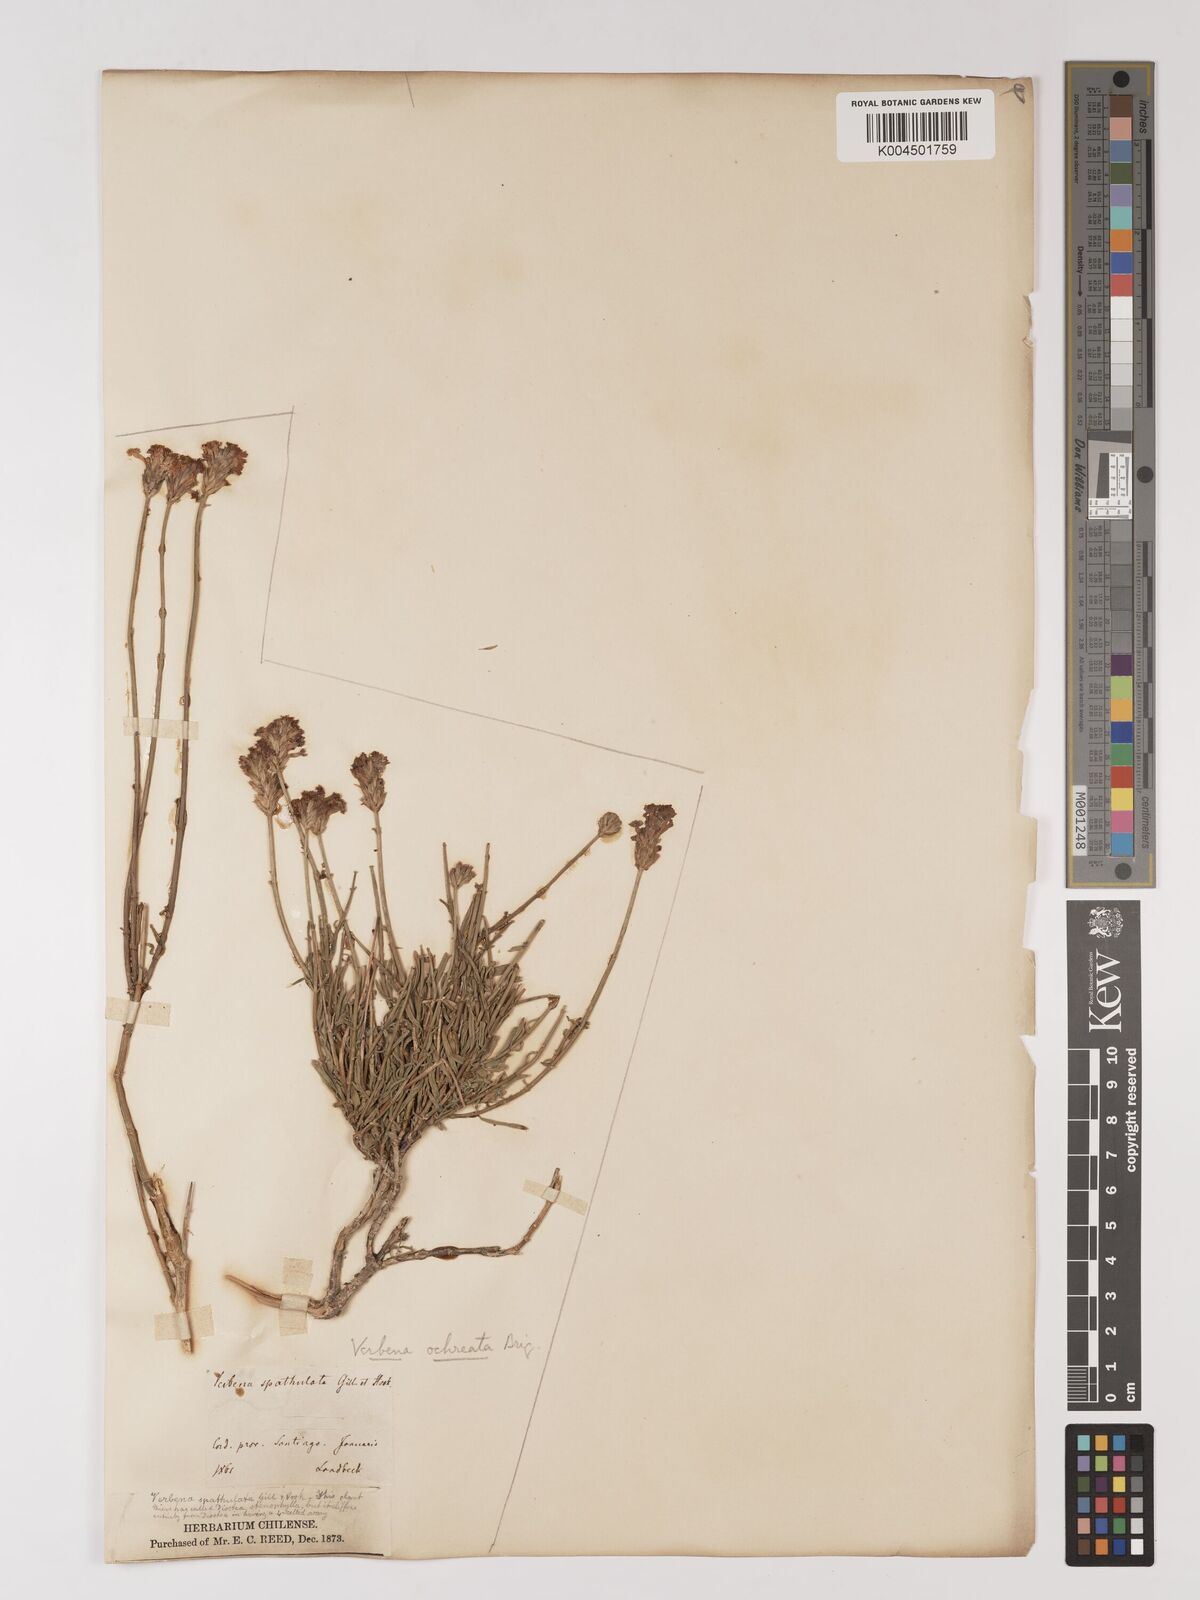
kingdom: Plantae
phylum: Tracheophyta
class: Magnoliopsida
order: Lamiales
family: Verbenaceae
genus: Junellia
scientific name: Junellia spathulata
